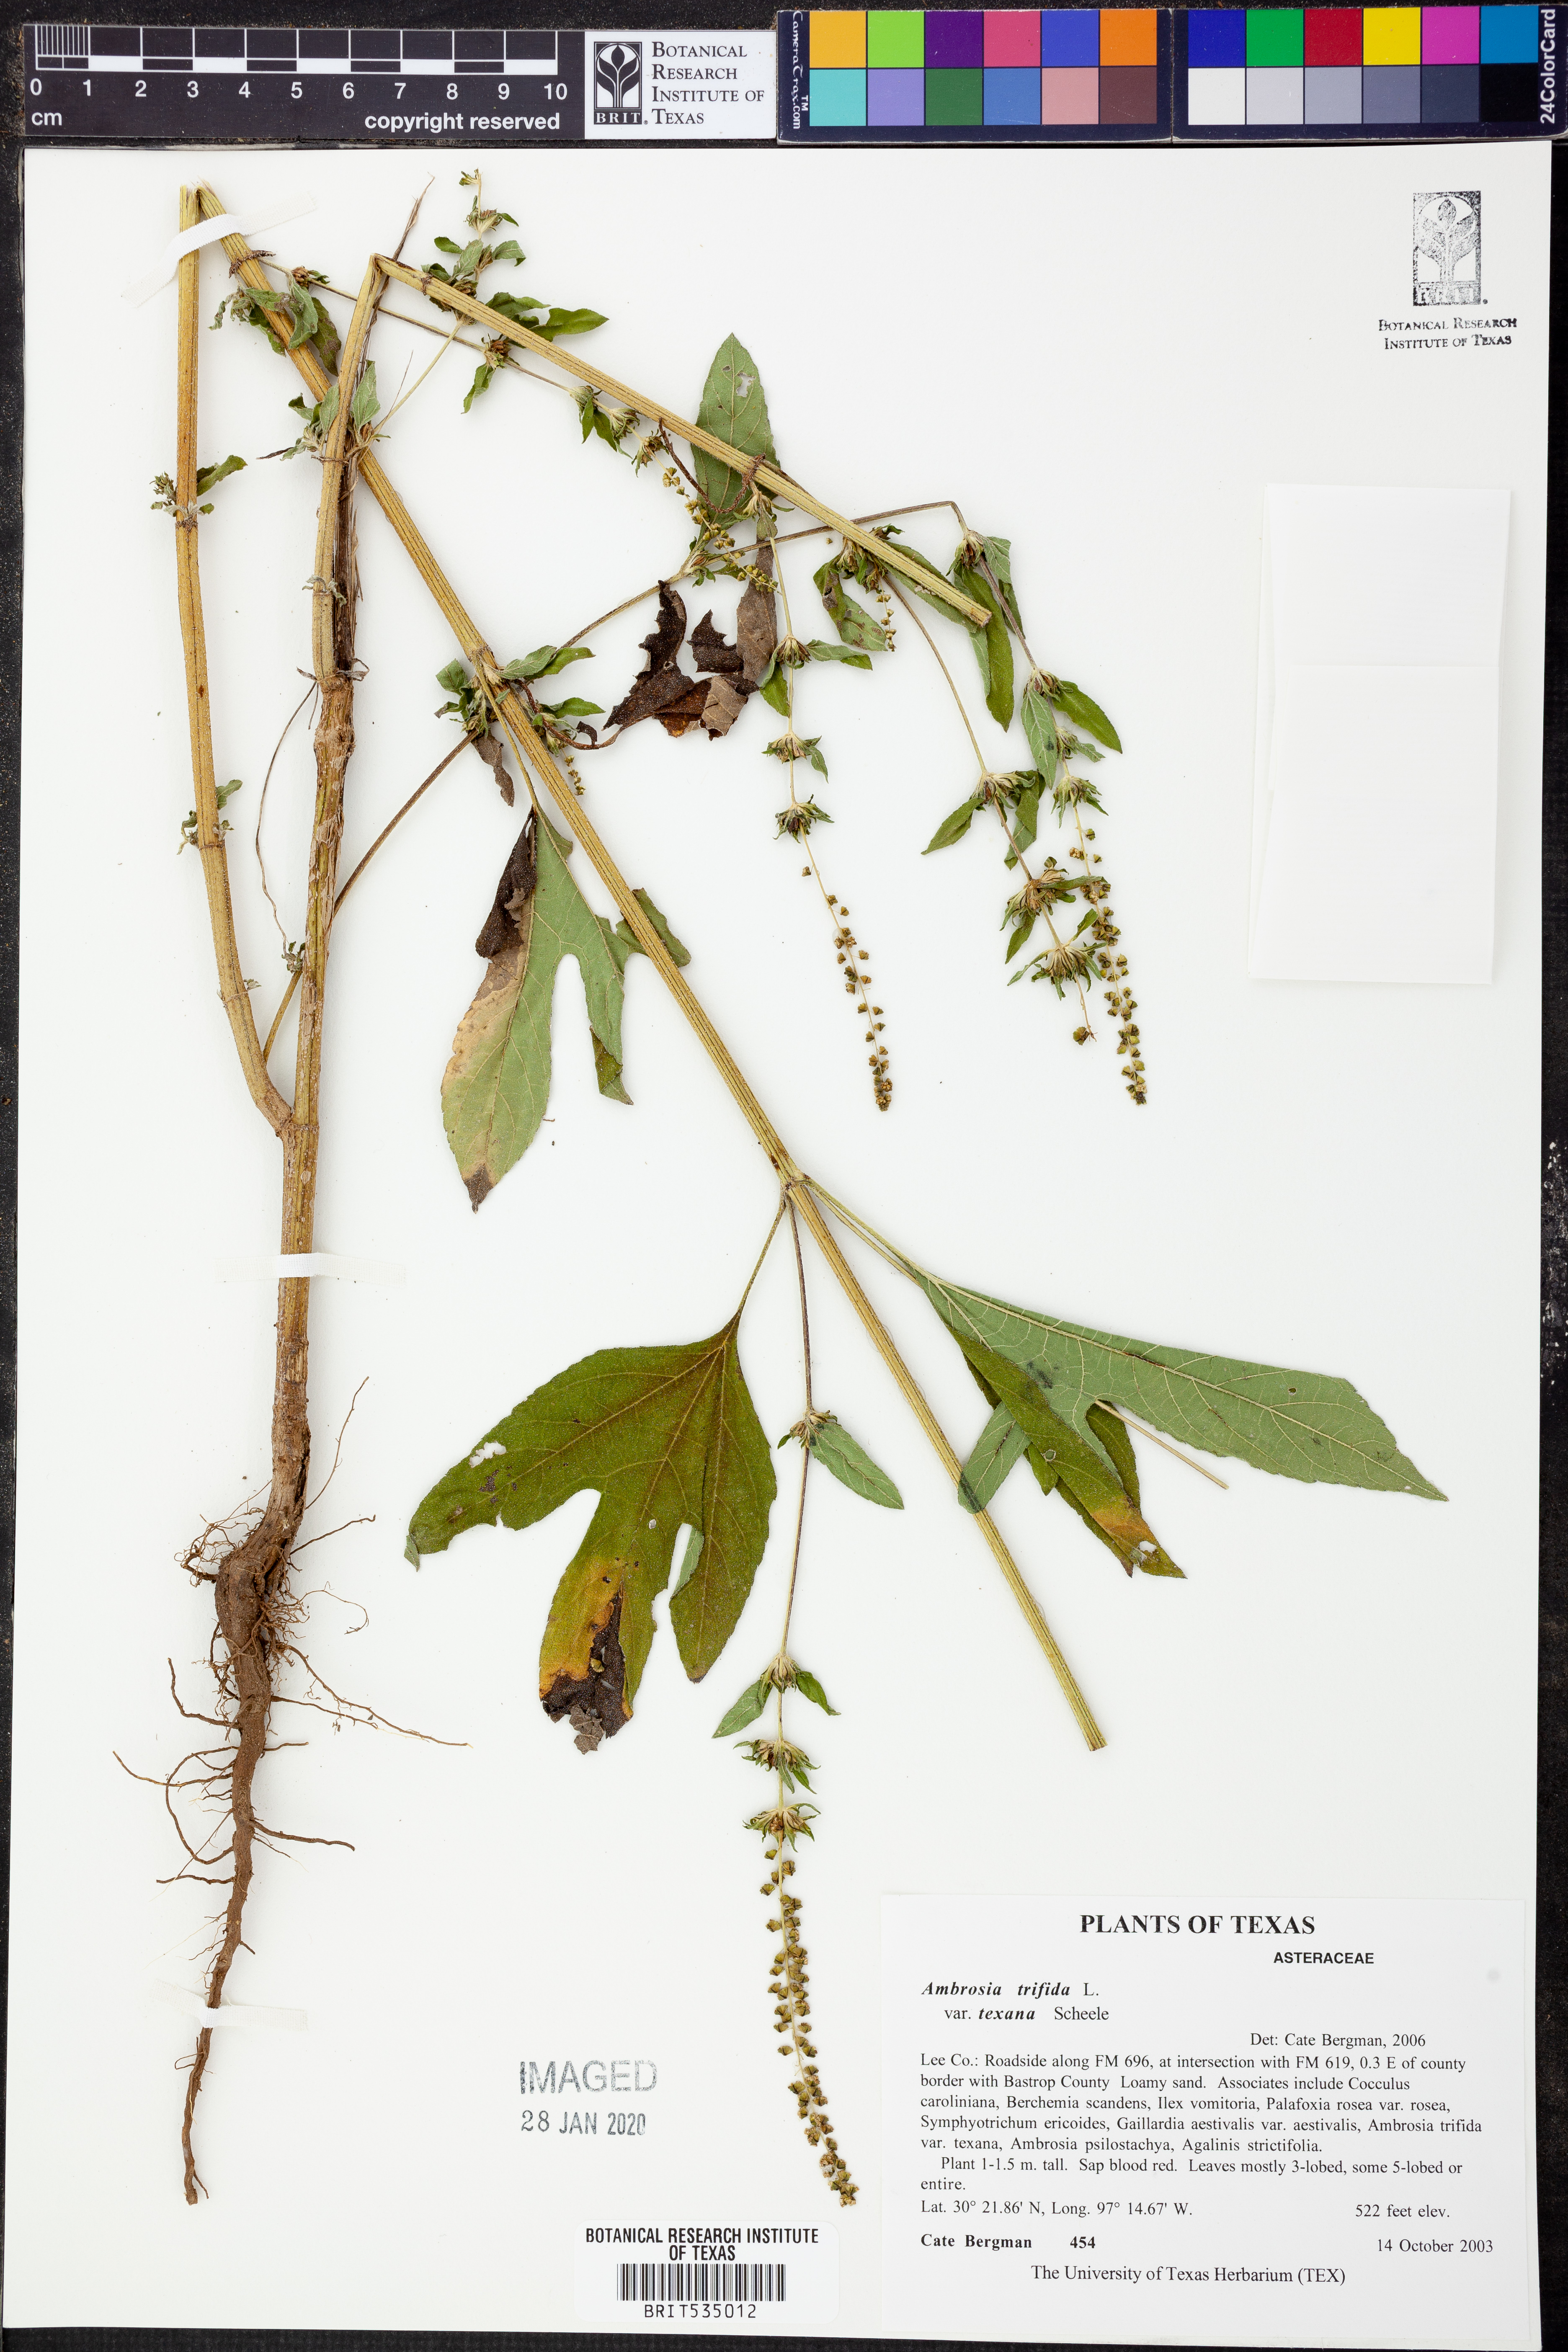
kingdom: Plantae
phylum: Tracheophyta
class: Magnoliopsida
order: Asterales
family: Asteraceae
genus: Ambrosia
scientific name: Ambrosia trifida
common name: Giant ragweed
